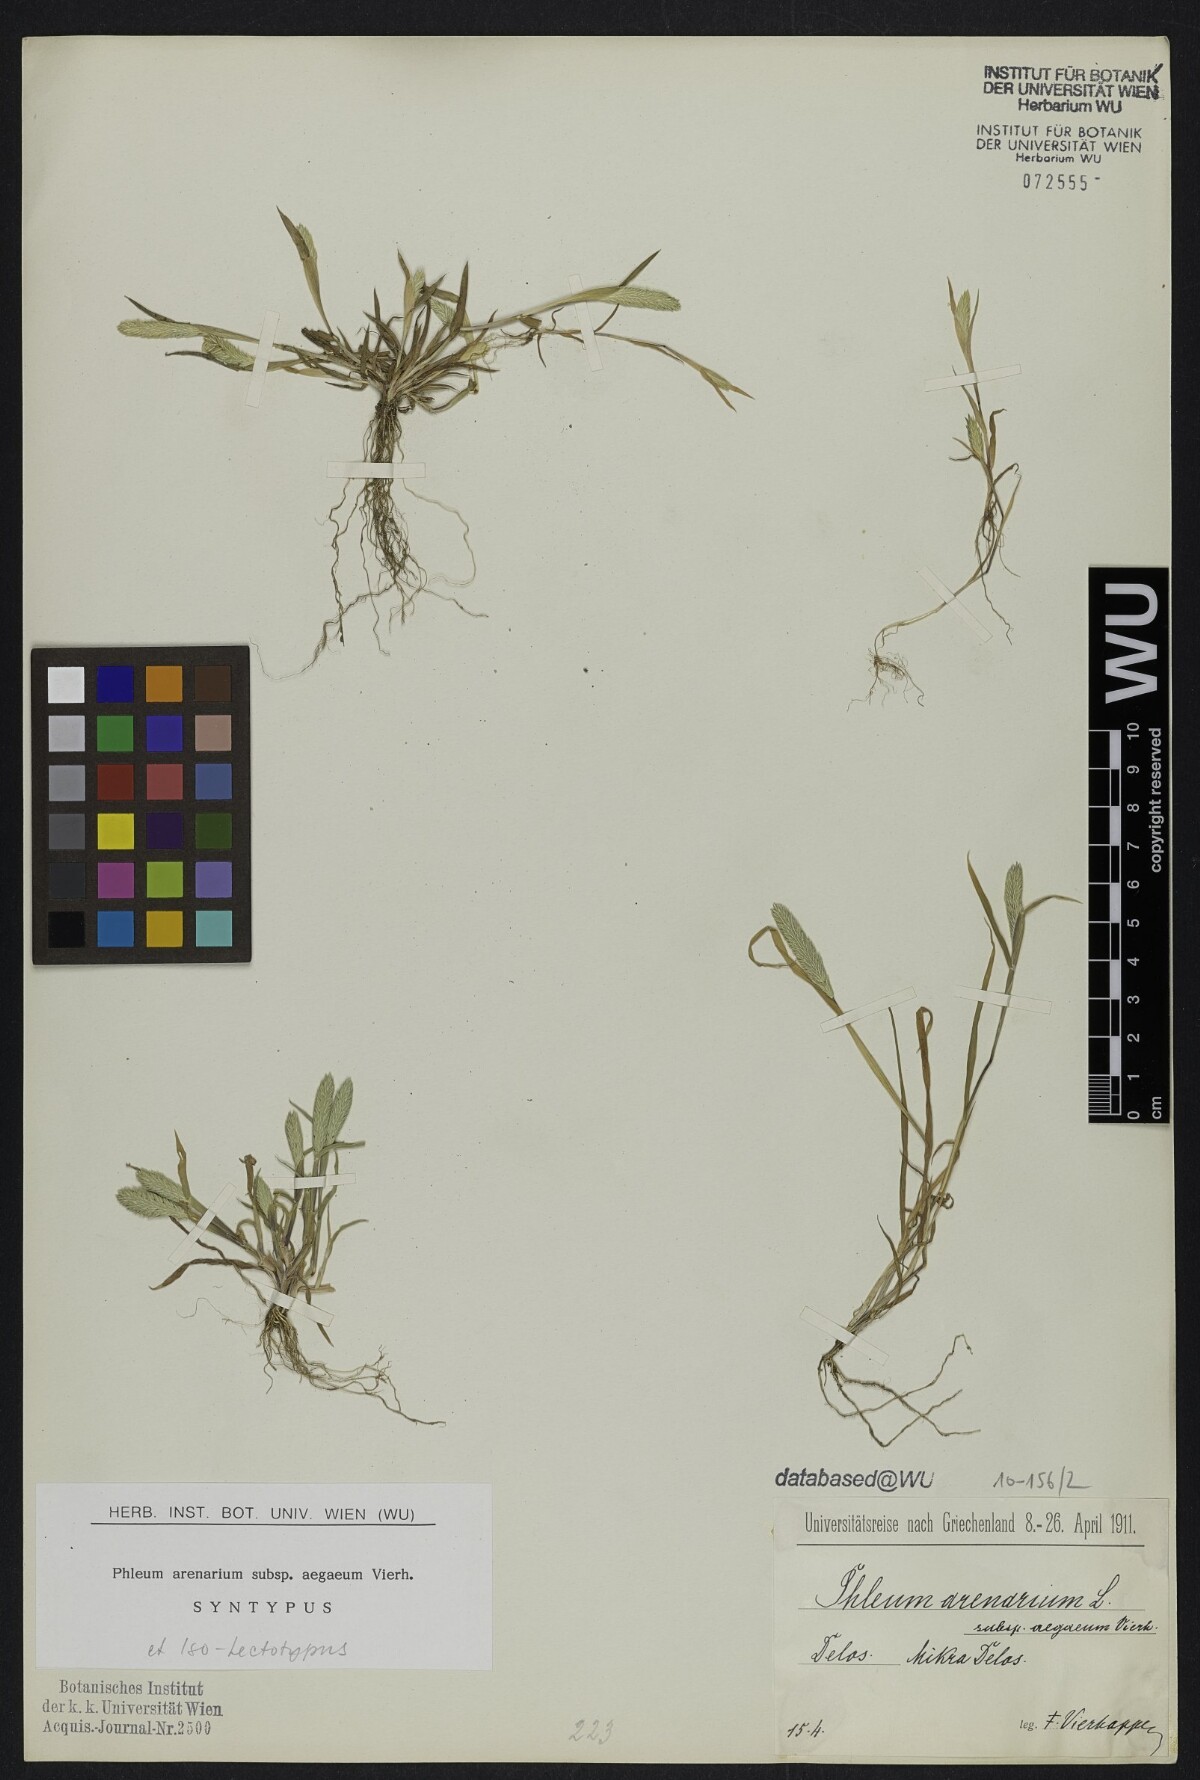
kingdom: Plantae
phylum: Tracheophyta
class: Liliopsida
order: Poales
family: Poaceae
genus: Phleum
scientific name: Phleum exaratum
